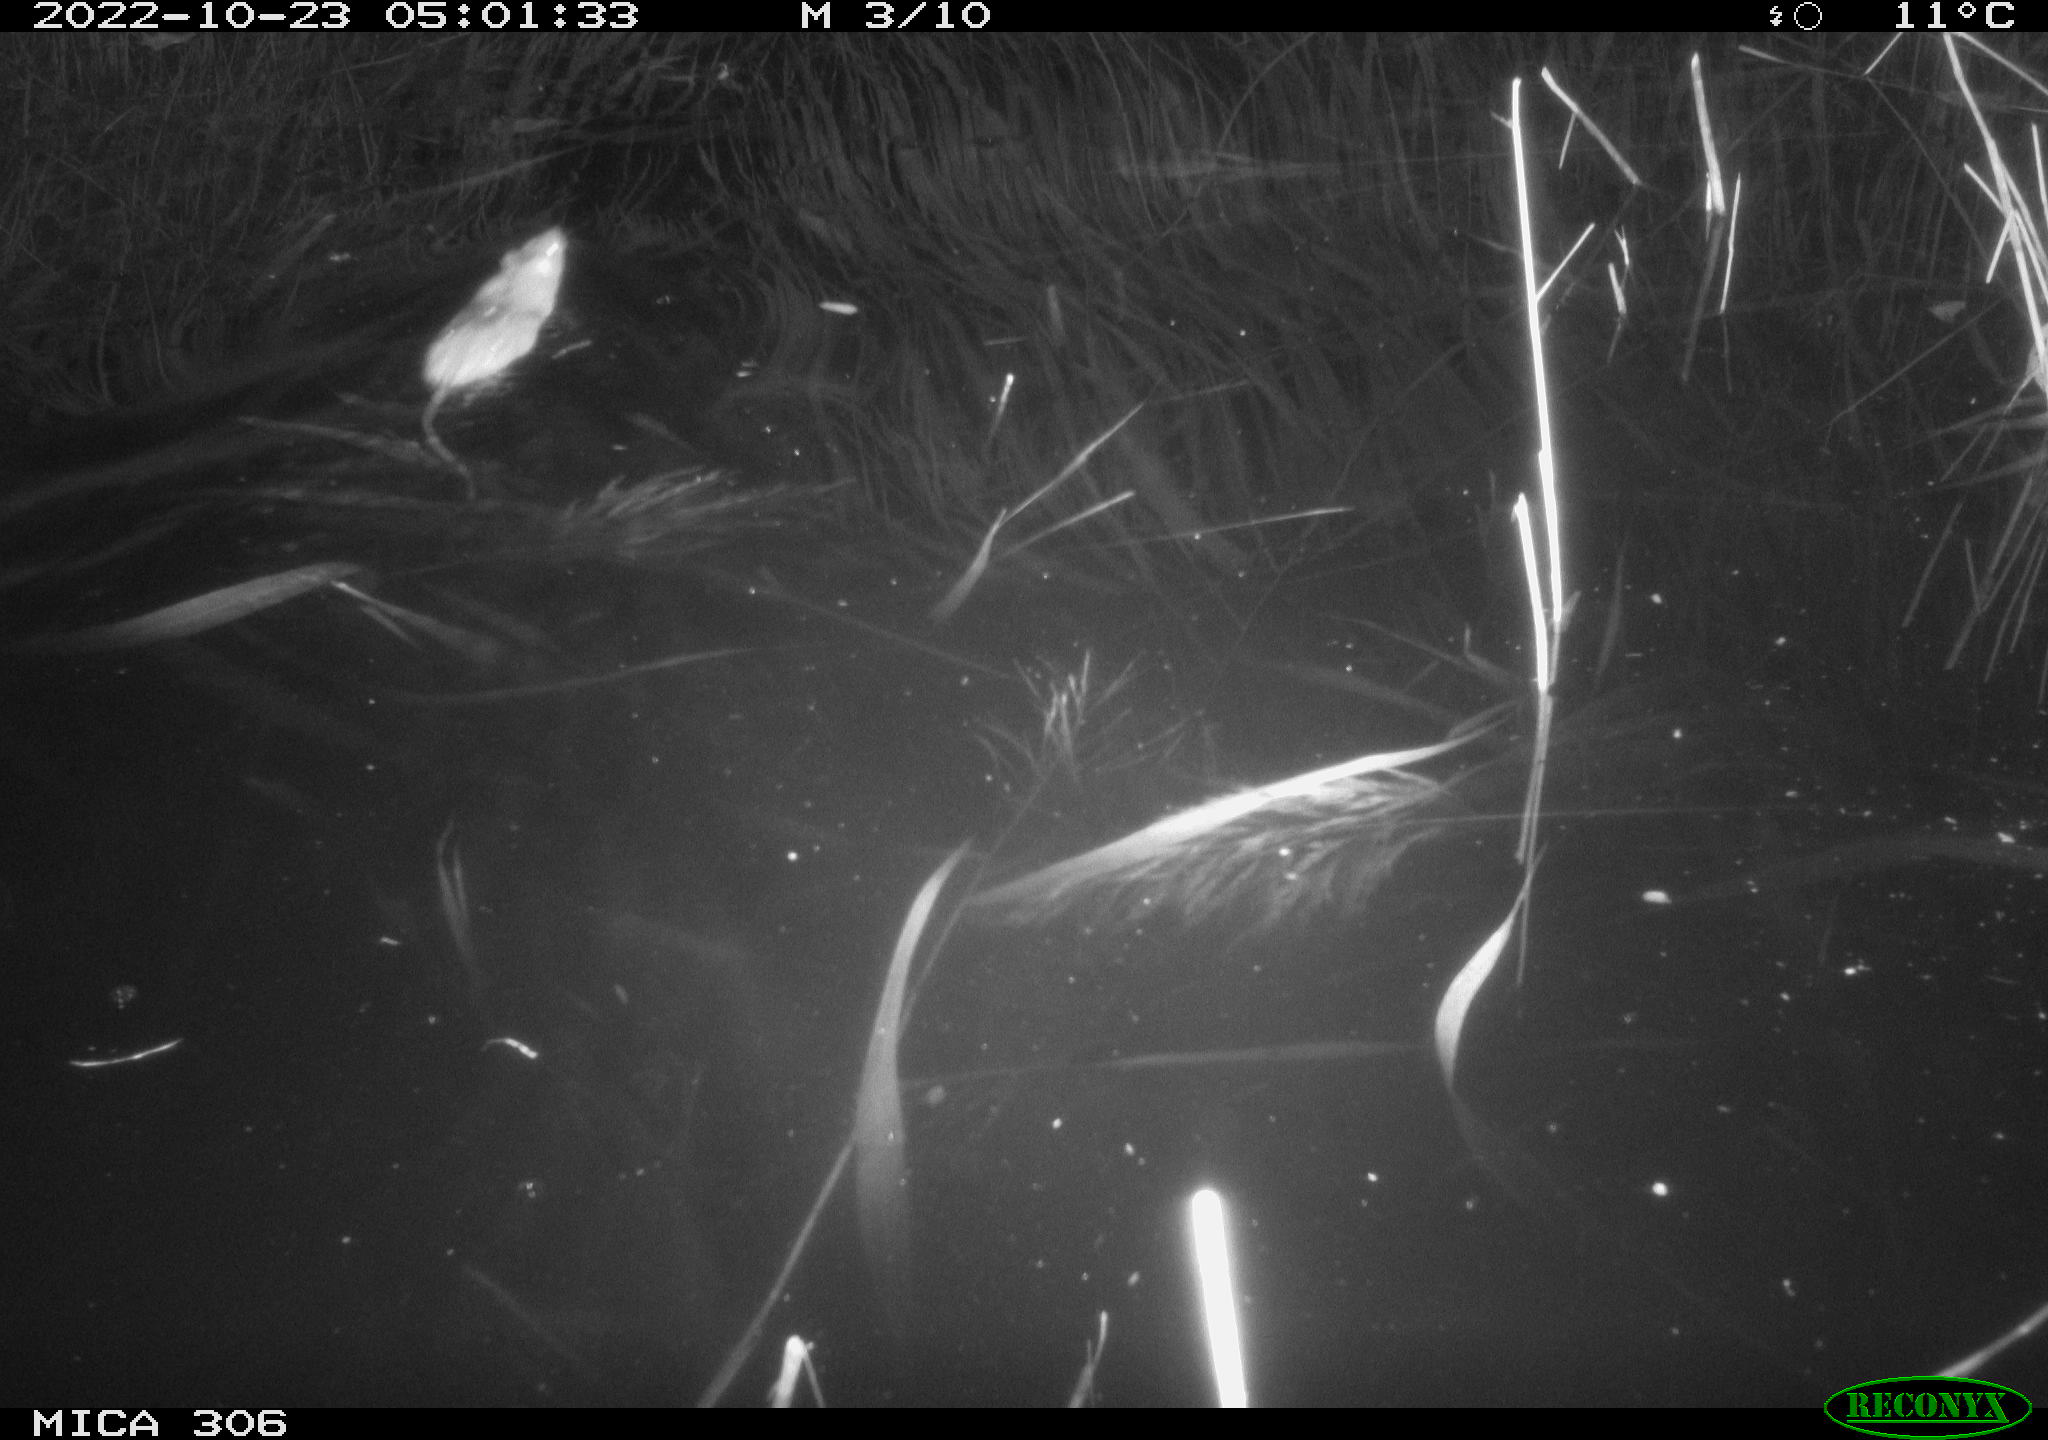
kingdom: Animalia
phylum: Chordata
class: Mammalia
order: Rodentia
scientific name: Rodentia
